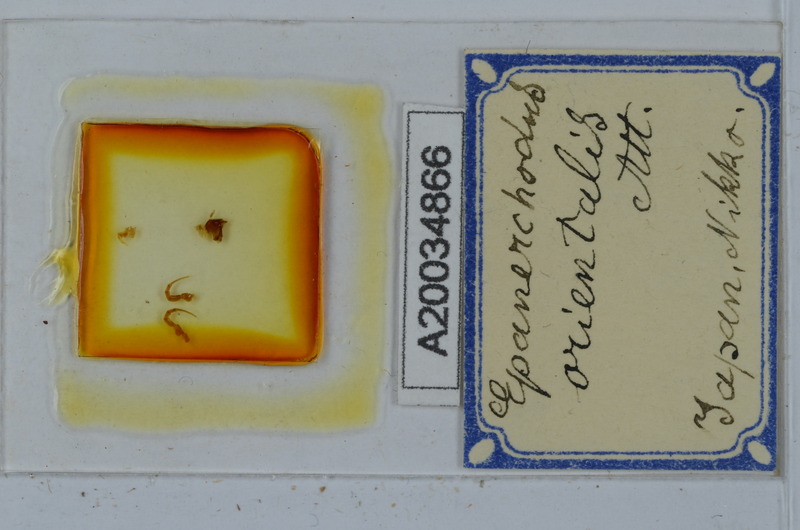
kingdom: Animalia
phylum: Arthropoda
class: Diplopoda
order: Polydesmida
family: Polydesmidae
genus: Epanerchodus
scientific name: Epanerchodus orientalis
